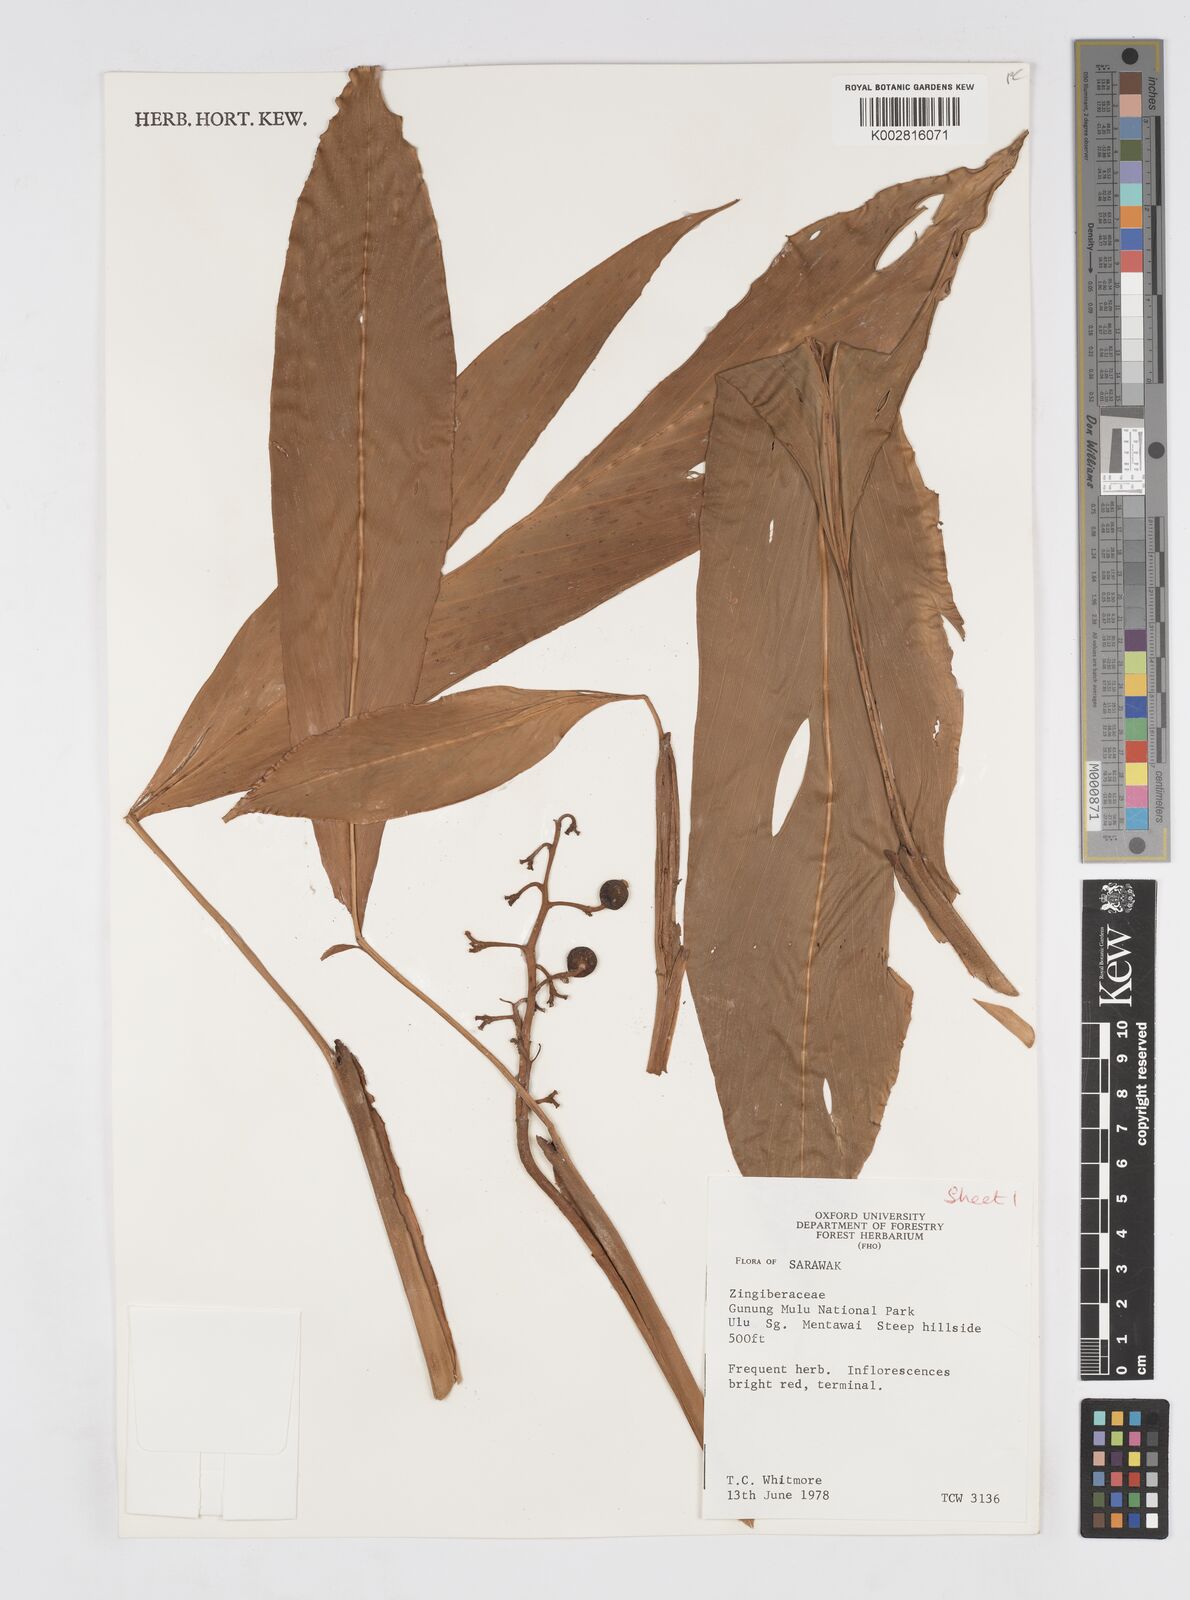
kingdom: Plantae
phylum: Tracheophyta
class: Liliopsida
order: Zingiberales
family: Zingiberaceae
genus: Alpinia
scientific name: Alpinia
